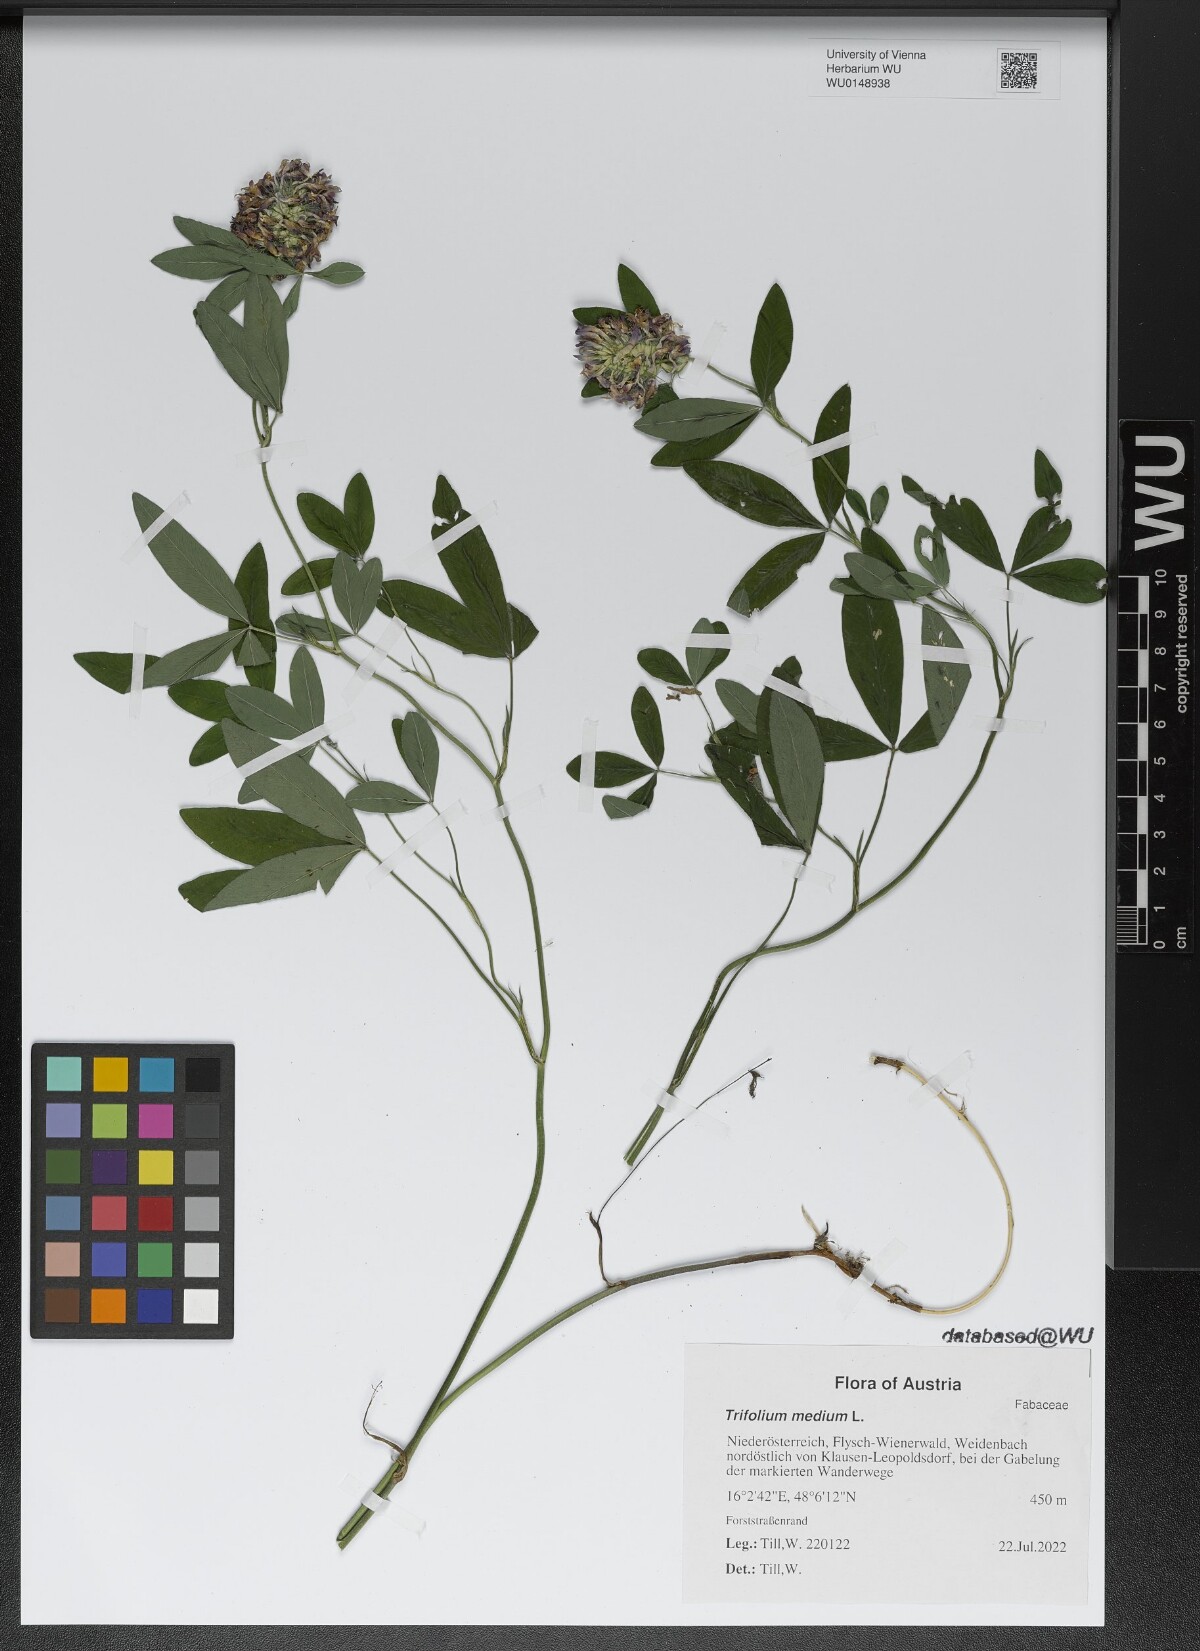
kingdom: Plantae
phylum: Tracheophyta
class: Magnoliopsida
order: Fabales
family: Fabaceae
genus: Trifolium
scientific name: Trifolium medium
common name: Zigzag clover
